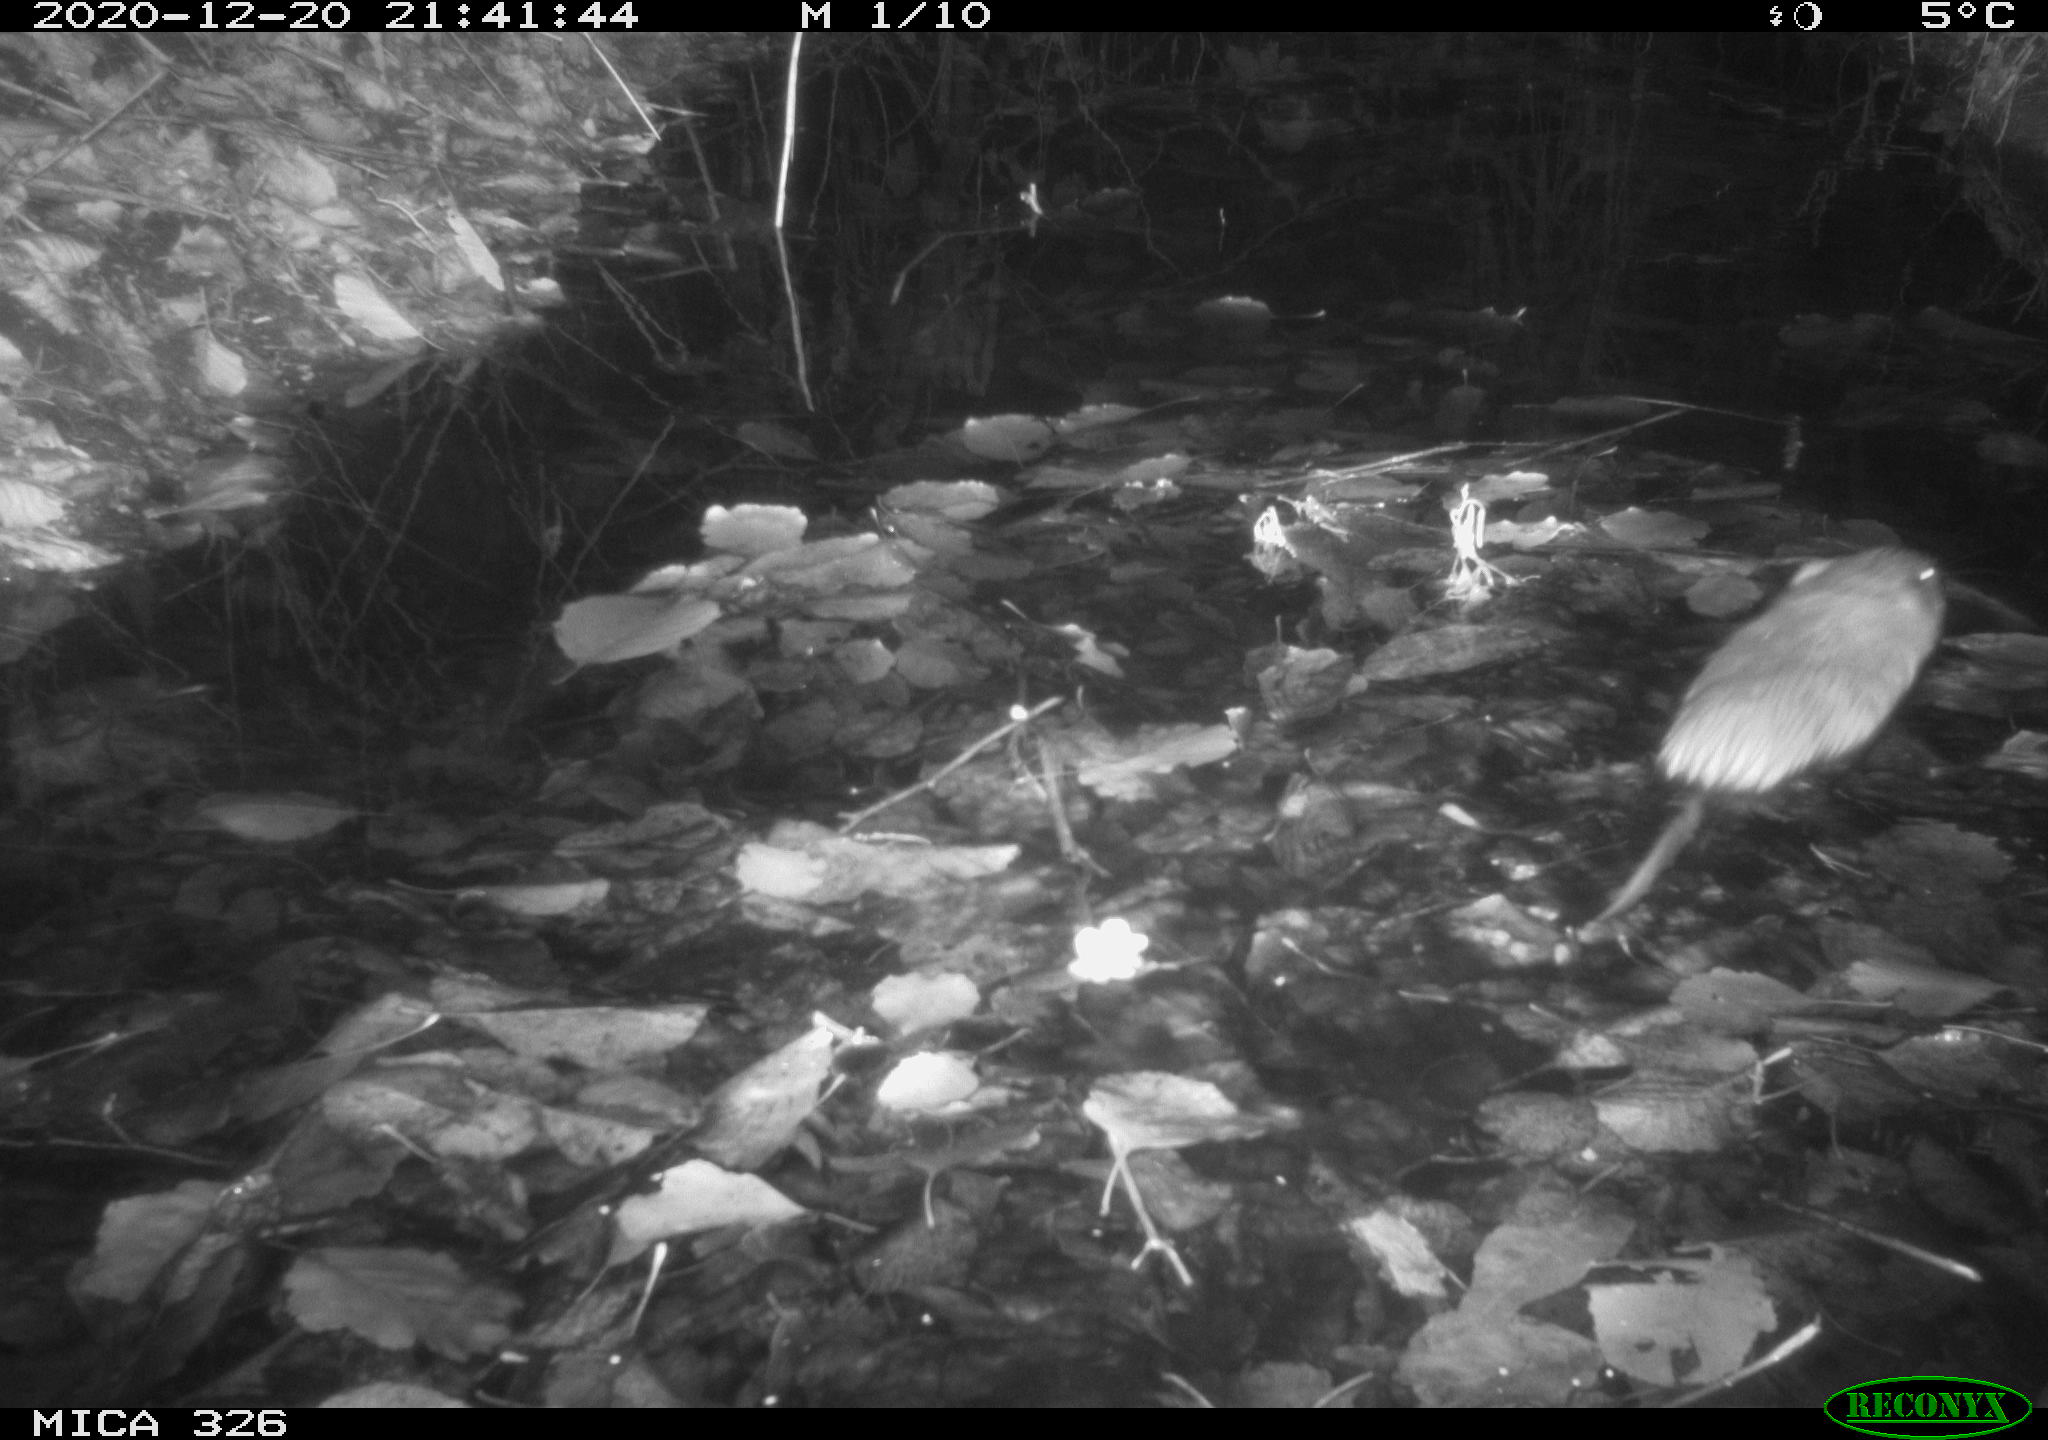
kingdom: Animalia
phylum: Chordata
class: Mammalia
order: Rodentia
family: Cricetidae
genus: Ondatra
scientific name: Ondatra zibethicus
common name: Muskrat
